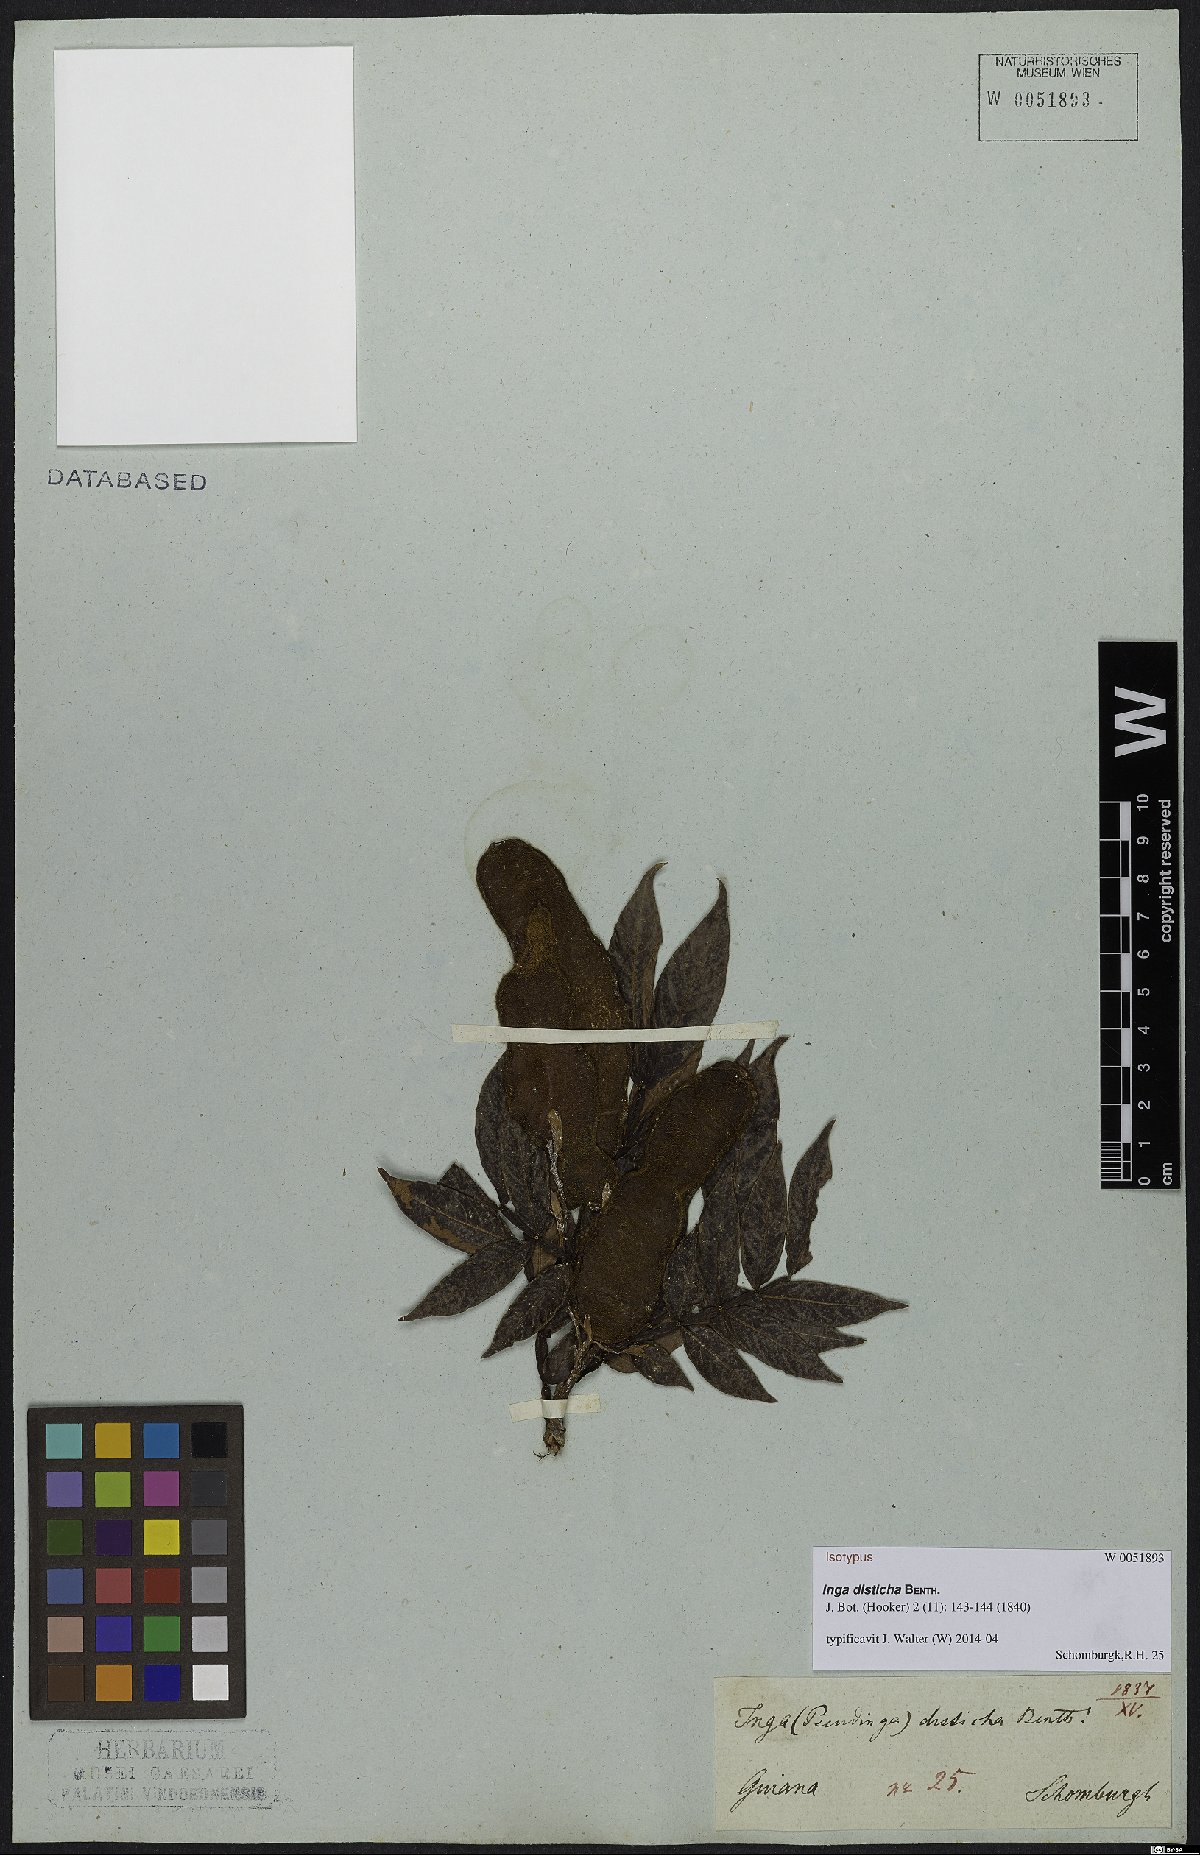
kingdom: Plantae
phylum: Tracheophyta
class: Magnoliopsida
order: Fabales
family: Fabaceae
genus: Inga
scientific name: Inga disticha
